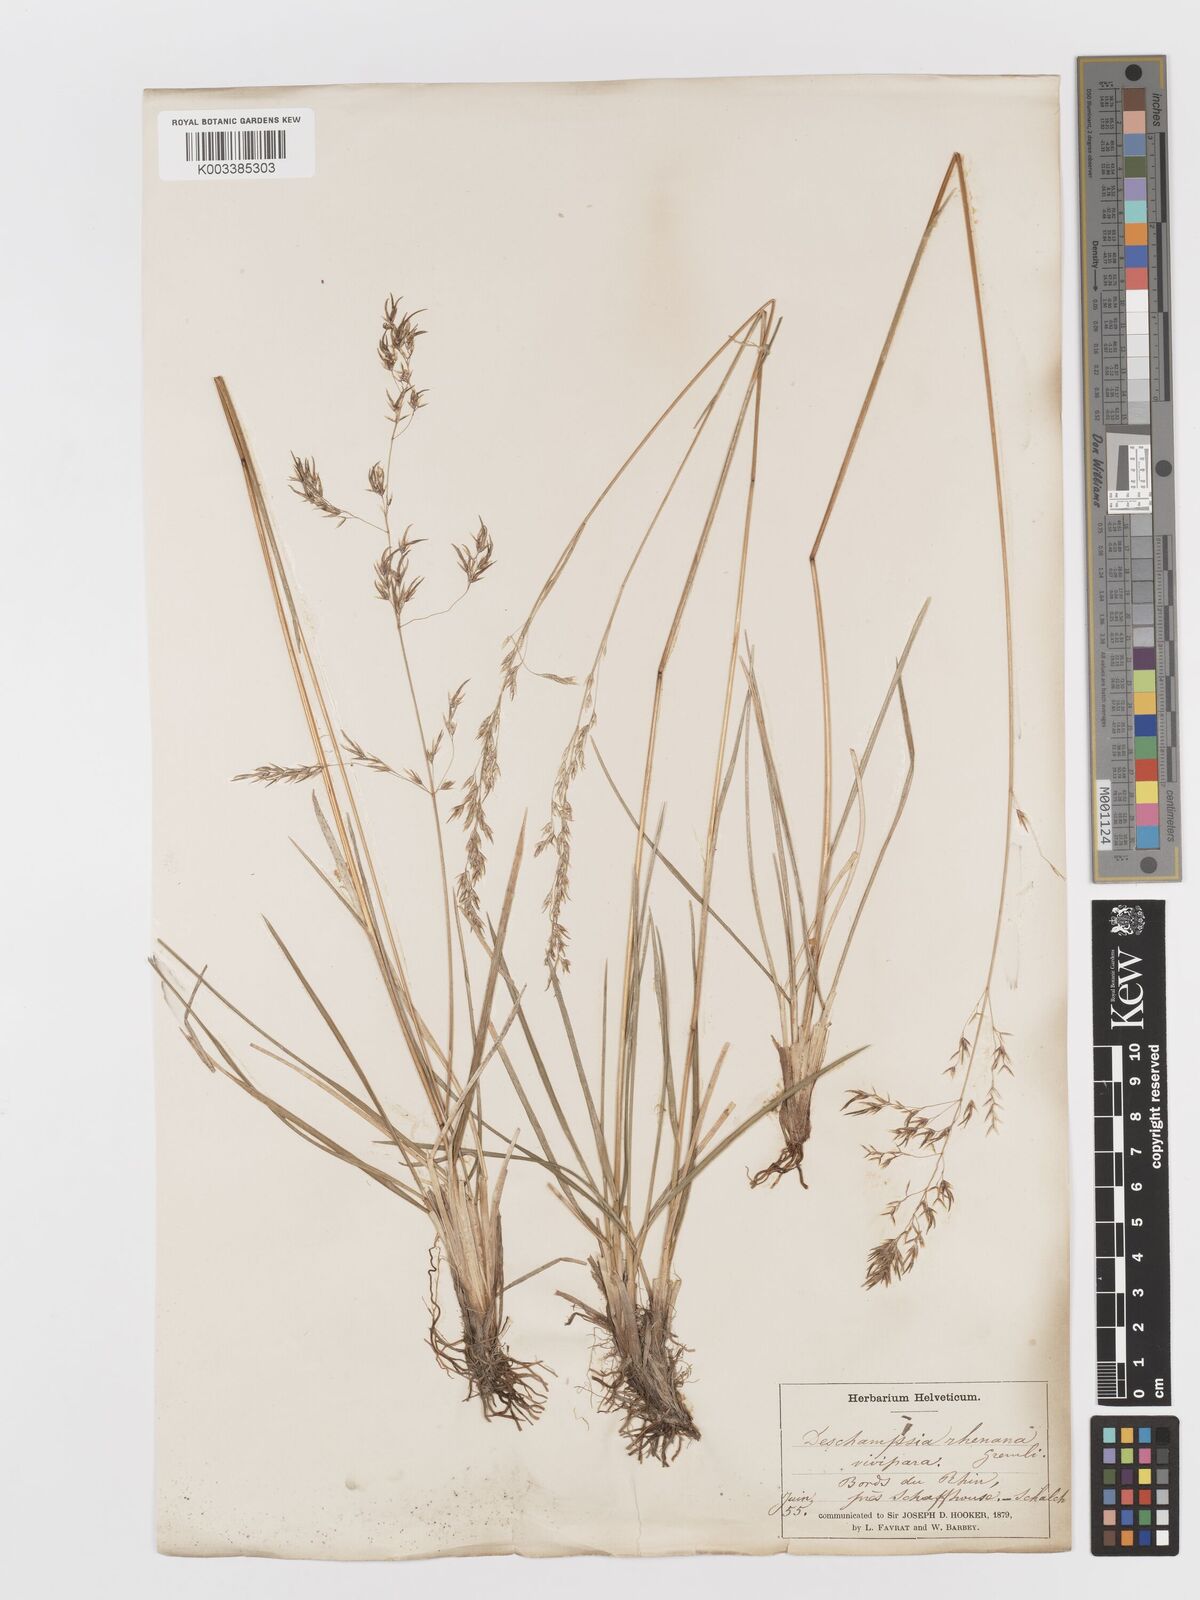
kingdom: Plantae
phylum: Tracheophyta
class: Liliopsida
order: Poales
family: Poaceae
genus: Deschampsia
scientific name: Deschampsia cespitosa
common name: Tufted hair-grass
